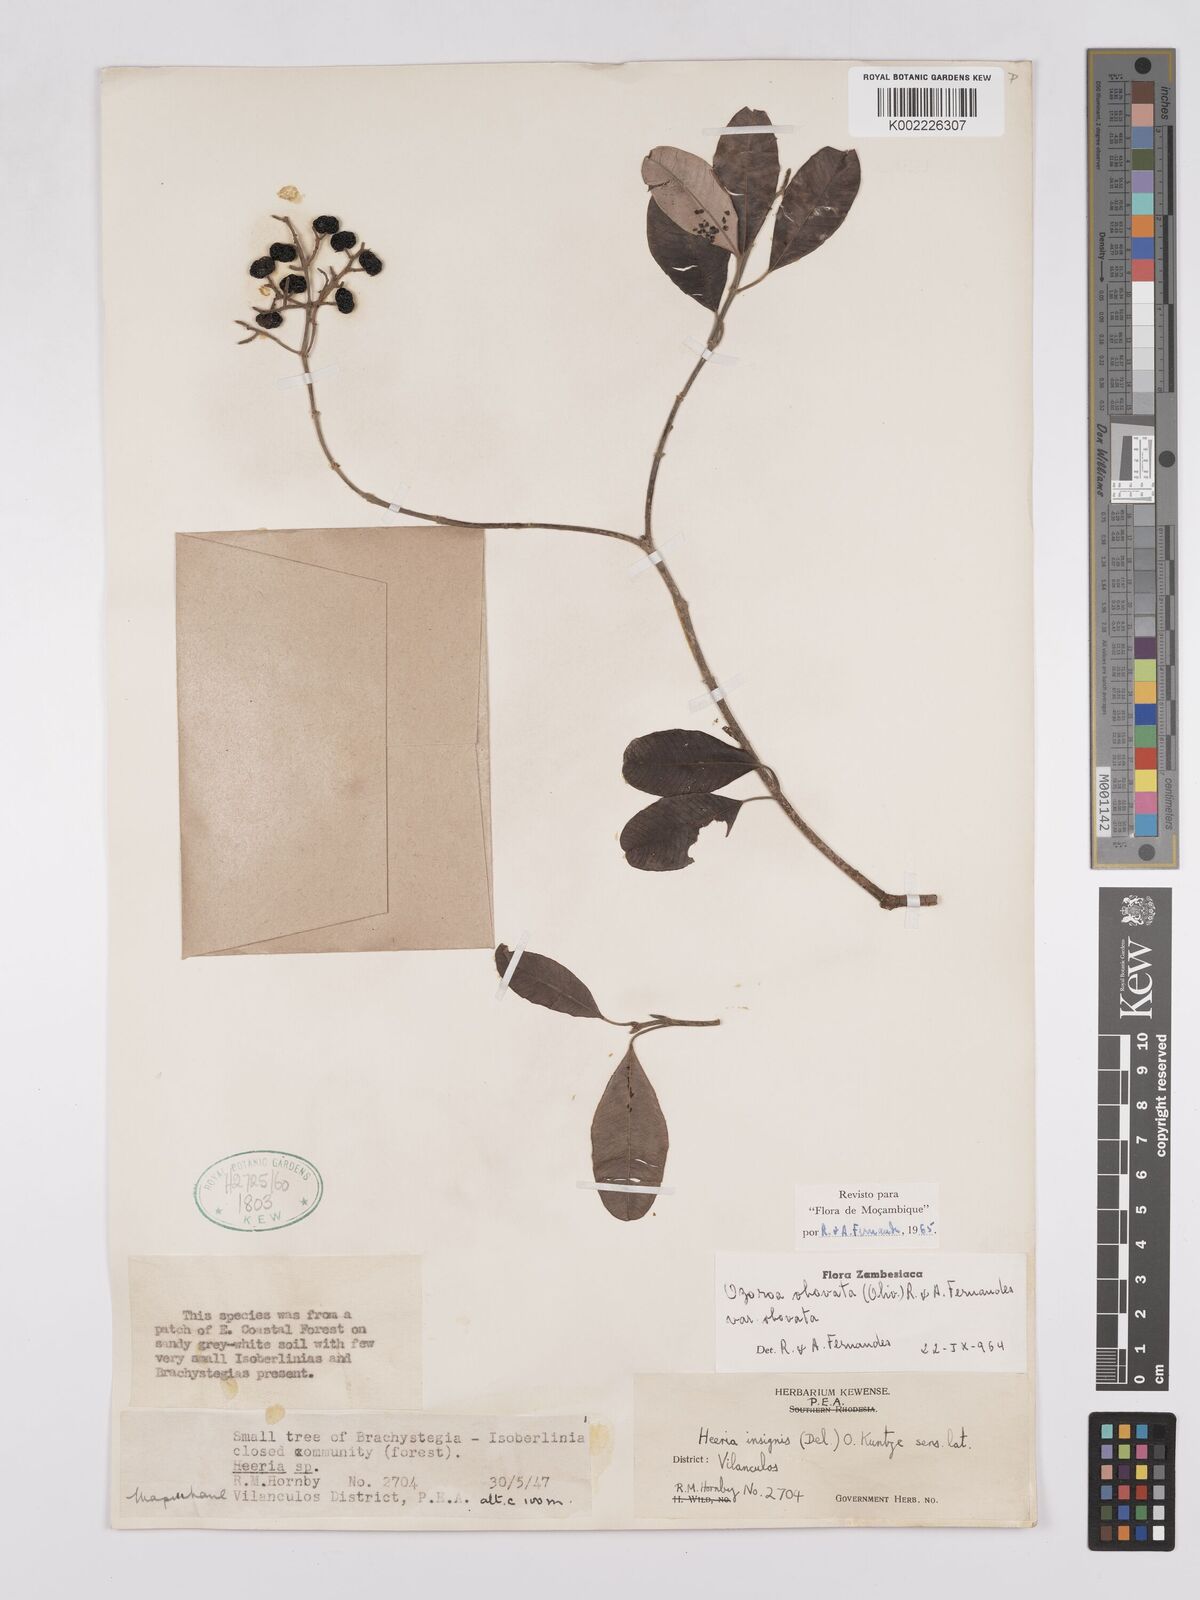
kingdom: Plantae
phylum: Tracheophyta
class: Magnoliopsida
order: Sapindales
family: Anacardiaceae
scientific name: Anacardiaceae
